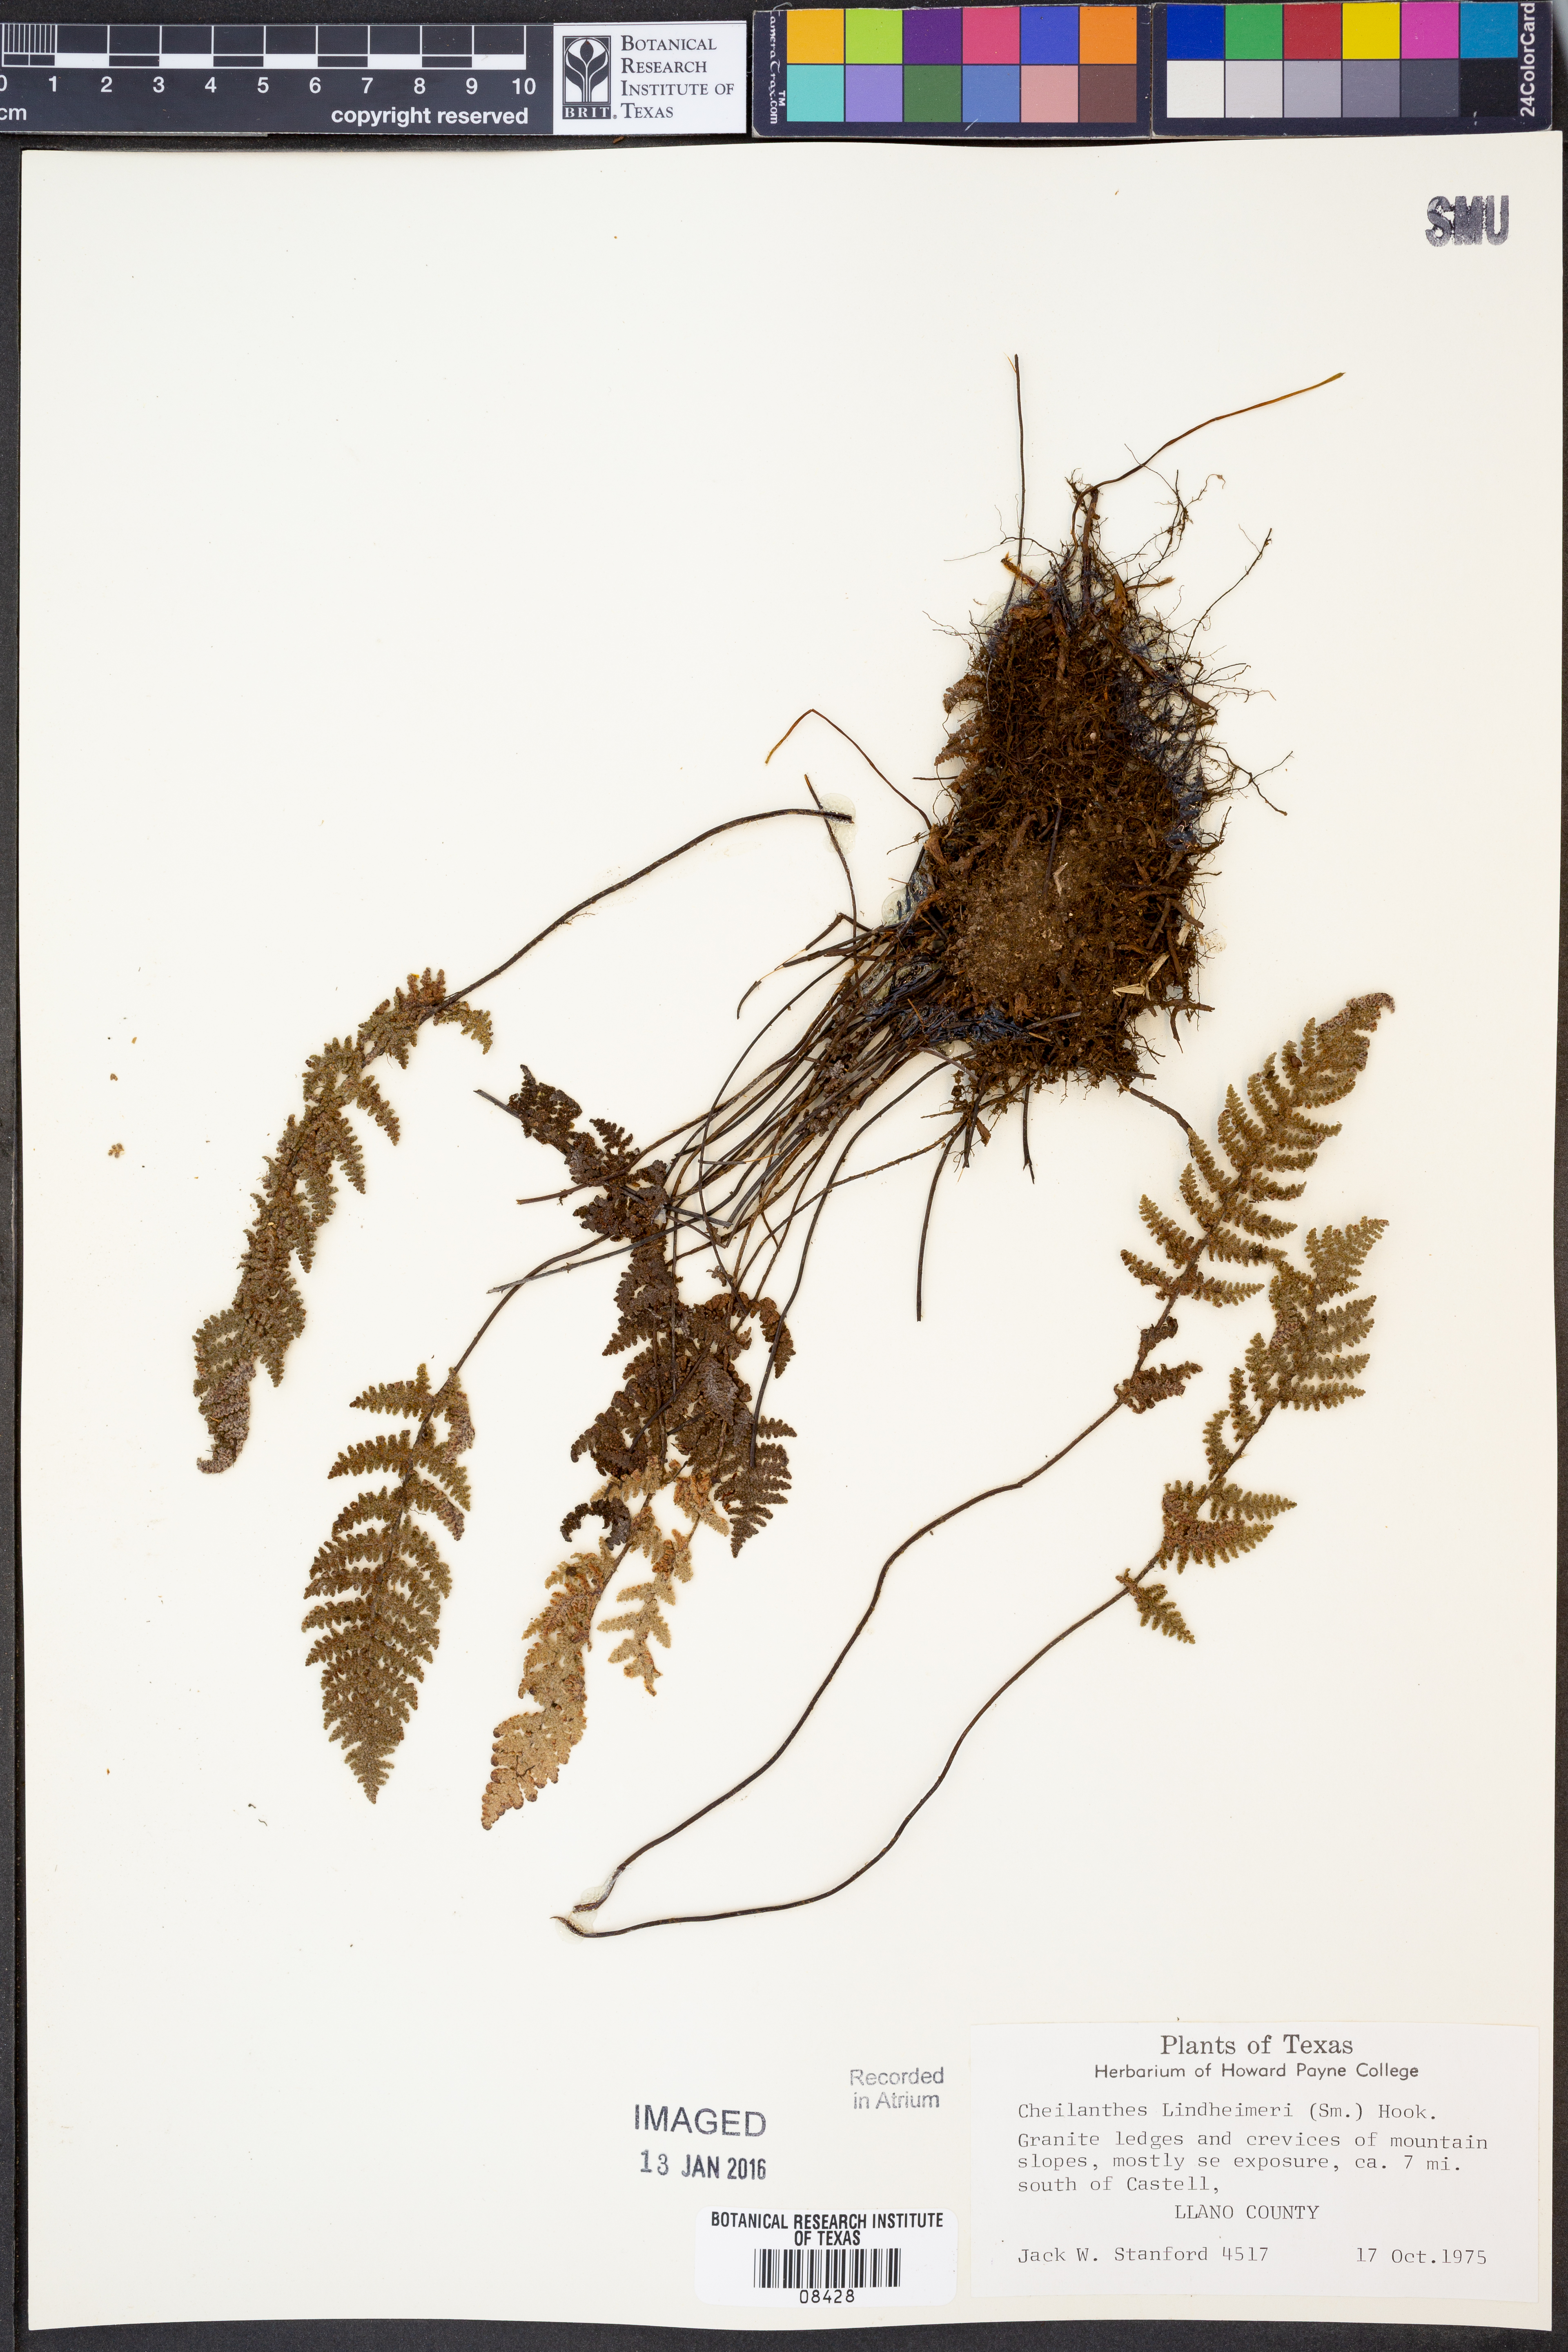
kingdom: Plantae
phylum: Tracheophyta
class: Polypodiopsida
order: Polypodiales
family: Pteridaceae
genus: Myriopteris
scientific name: Myriopteris lindheimeri
